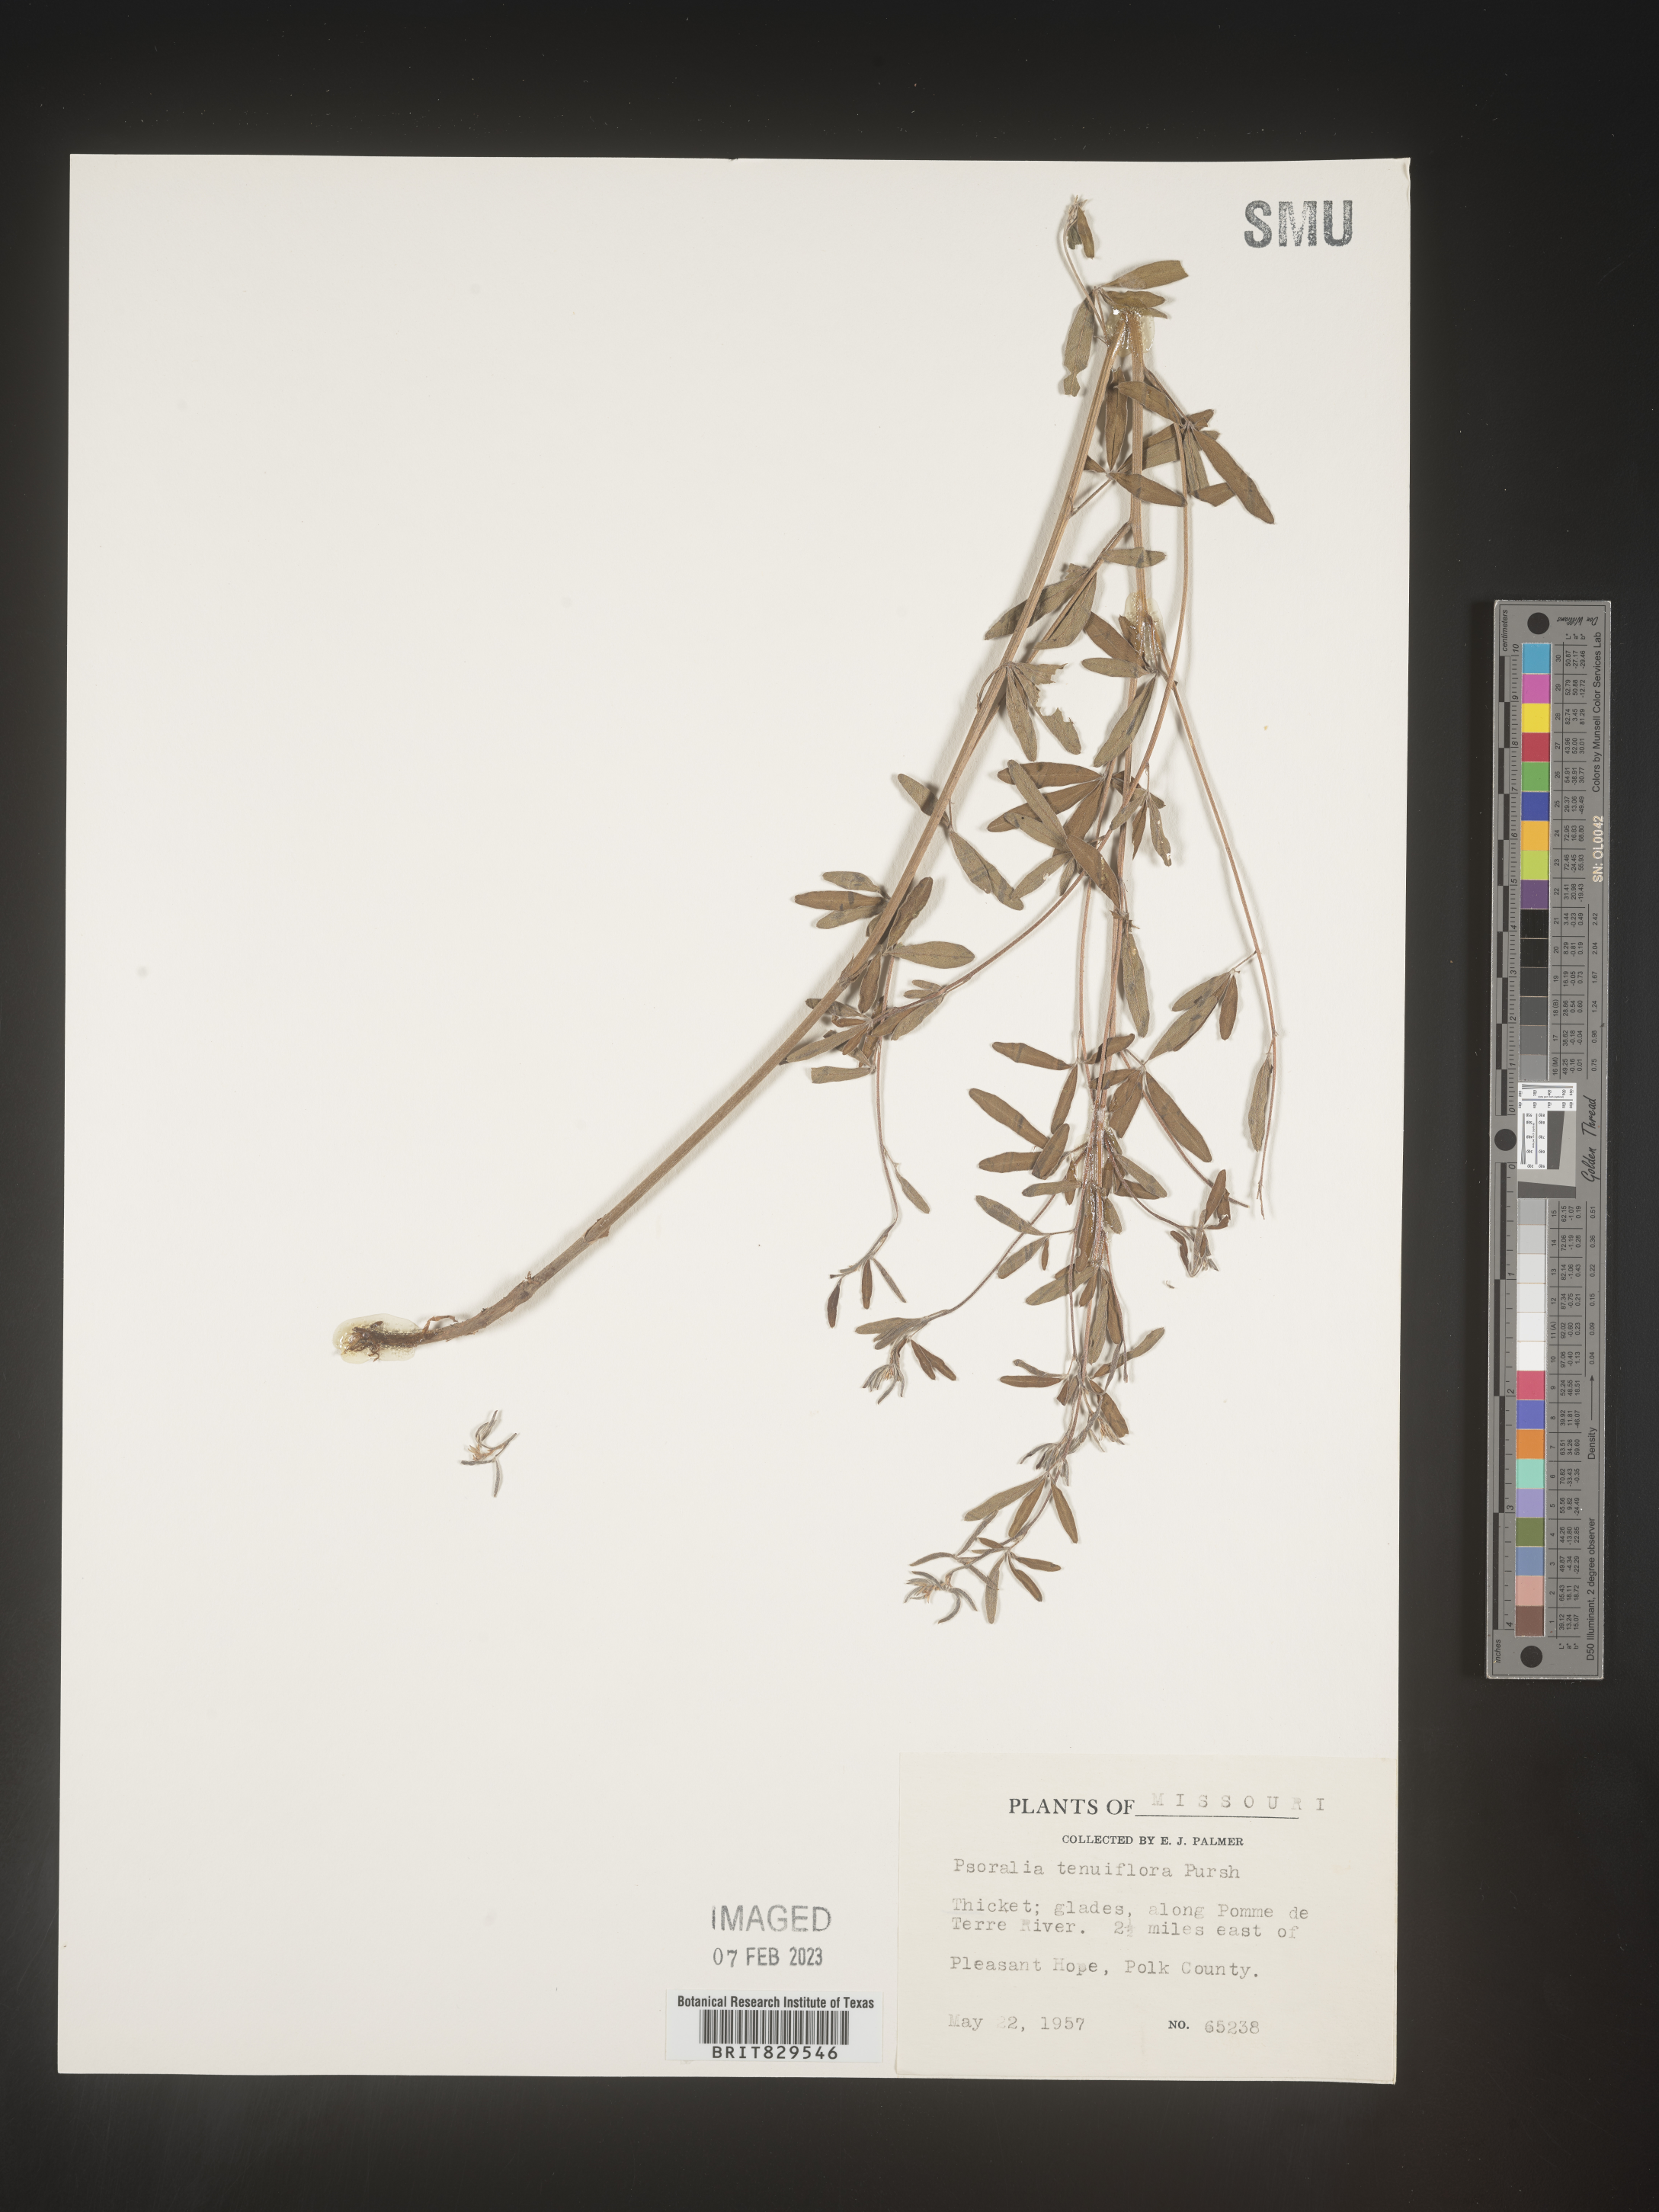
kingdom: Plantae
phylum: Tracheophyta
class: Magnoliopsida
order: Fabales
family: Fabaceae
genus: Pediomelum
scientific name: Pediomelum tenuiflorum
